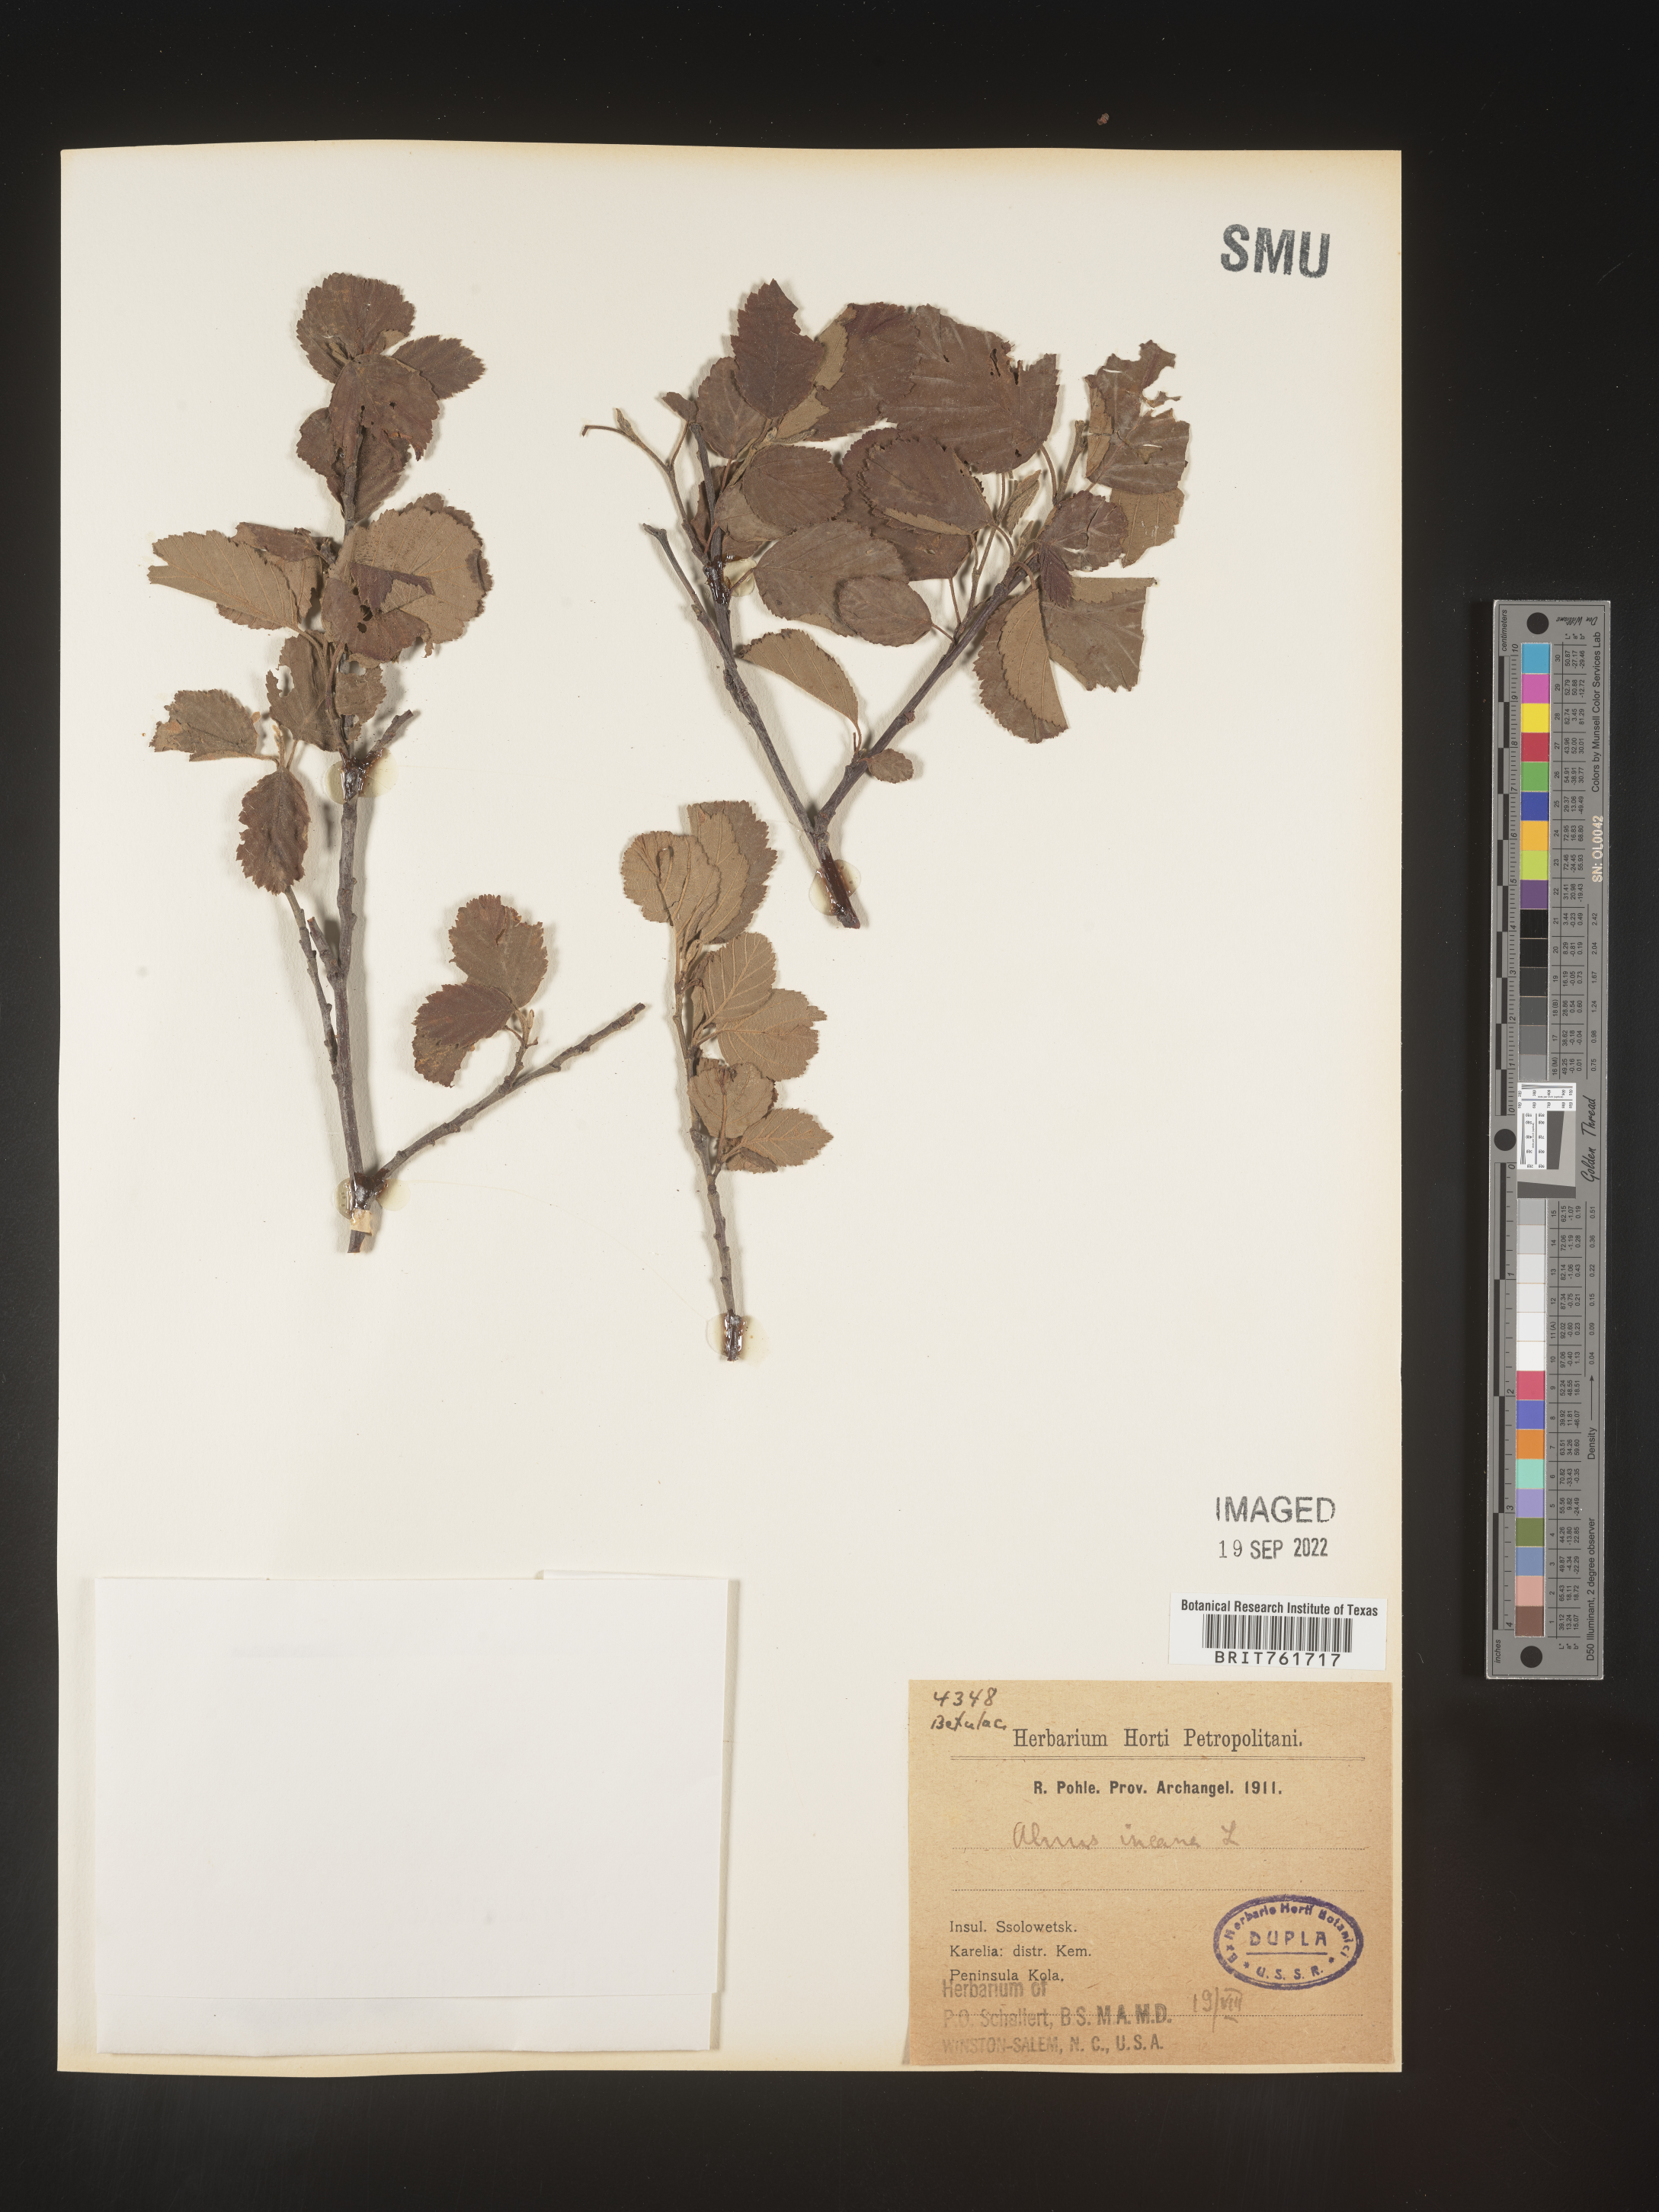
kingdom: Plantae
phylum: Tracheophyta
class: Magnoliopsida
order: Fagales
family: Betulaceae
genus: Alnus
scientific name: Alnus
